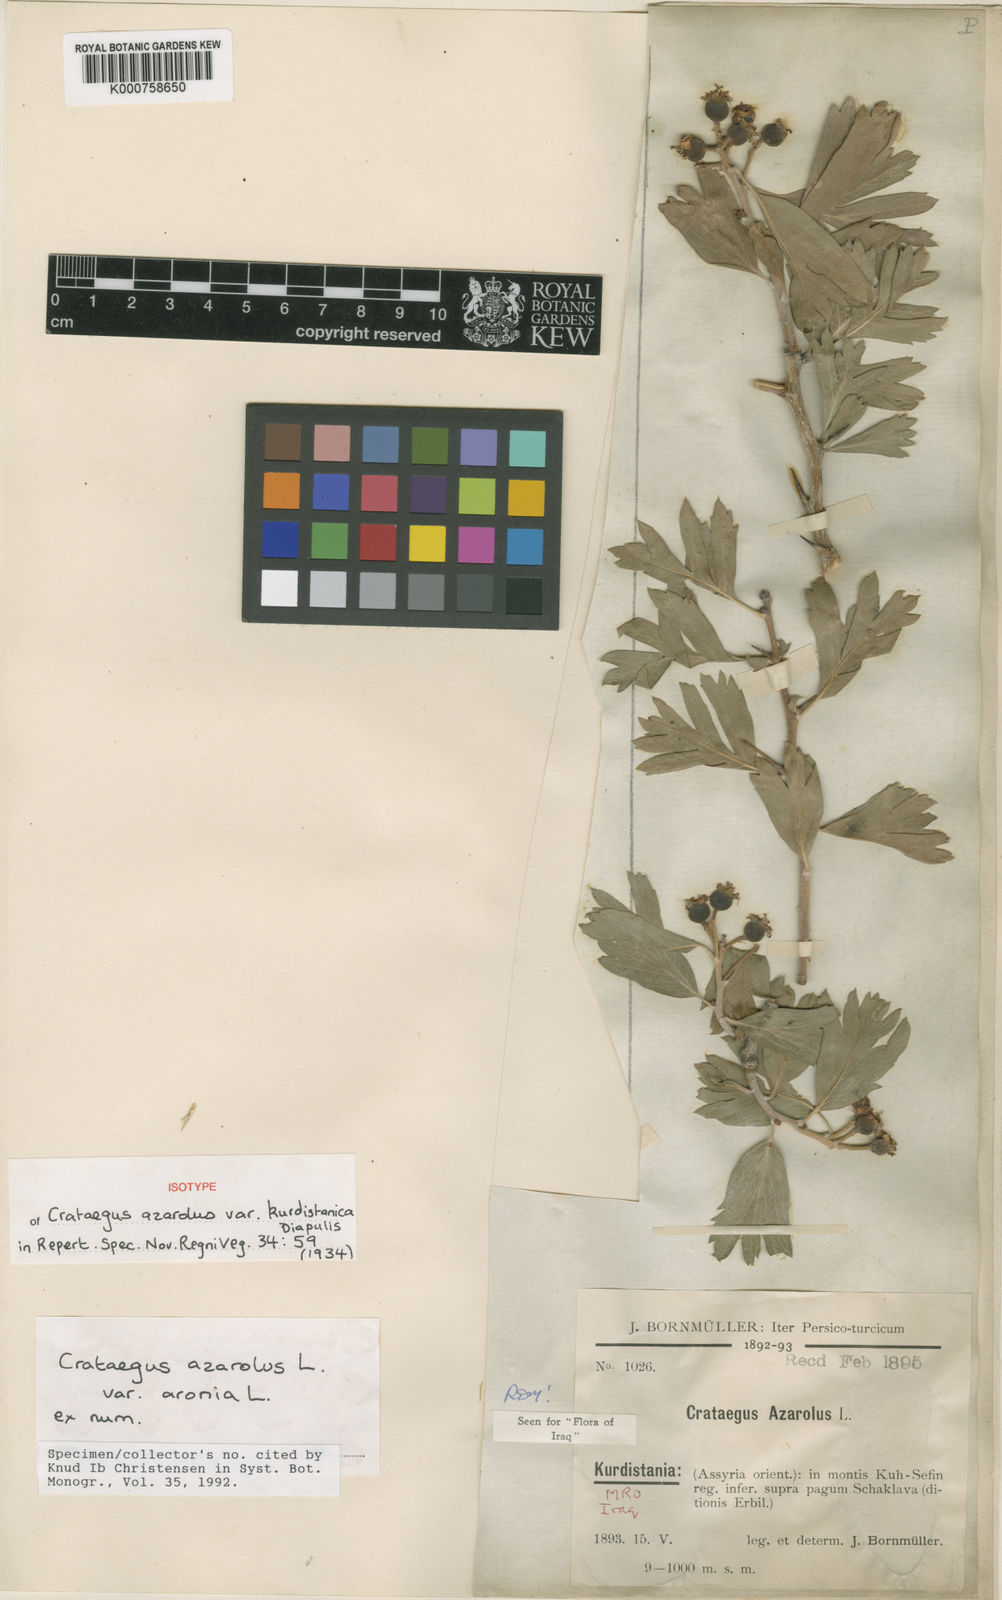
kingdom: Plantae
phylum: Tracheophyta
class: Magnoliopsida
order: Rosales
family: Rosaceae
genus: Crataegus
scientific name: Crataegus azarolus
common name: Azarole
